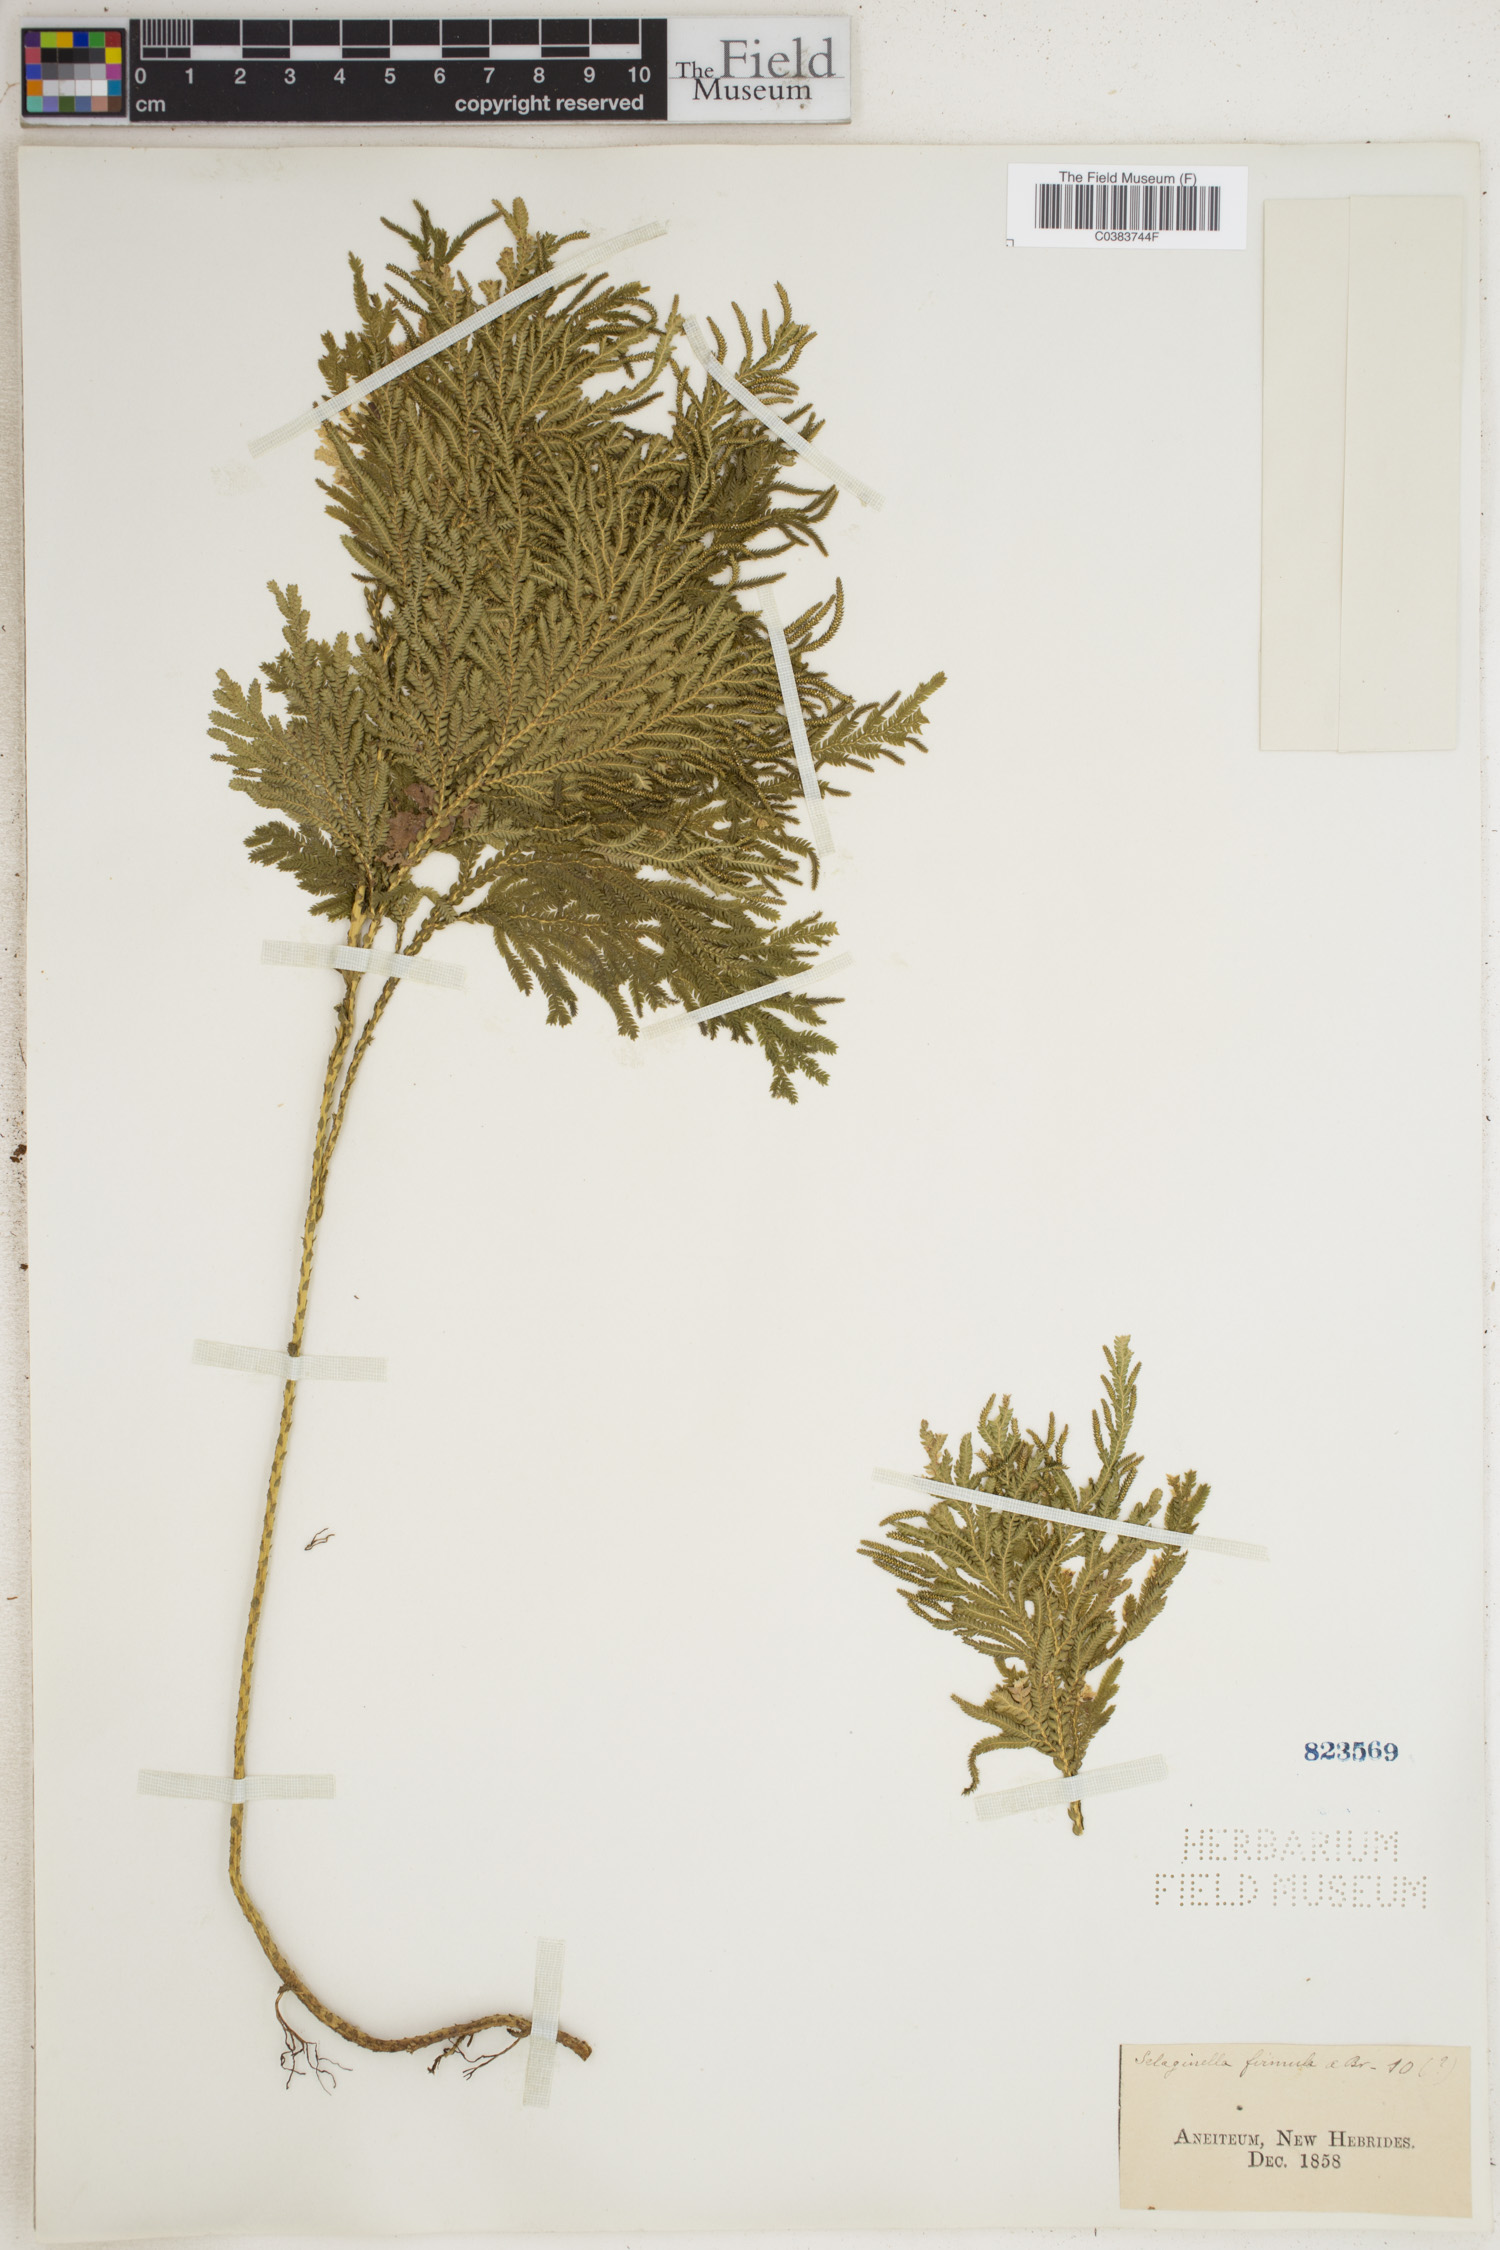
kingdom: Plantae
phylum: Tracheophyta
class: Lycopodiopsida
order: Selaginellales
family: Selaginellaceae
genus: Selaginella
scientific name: Selaginella firmula
